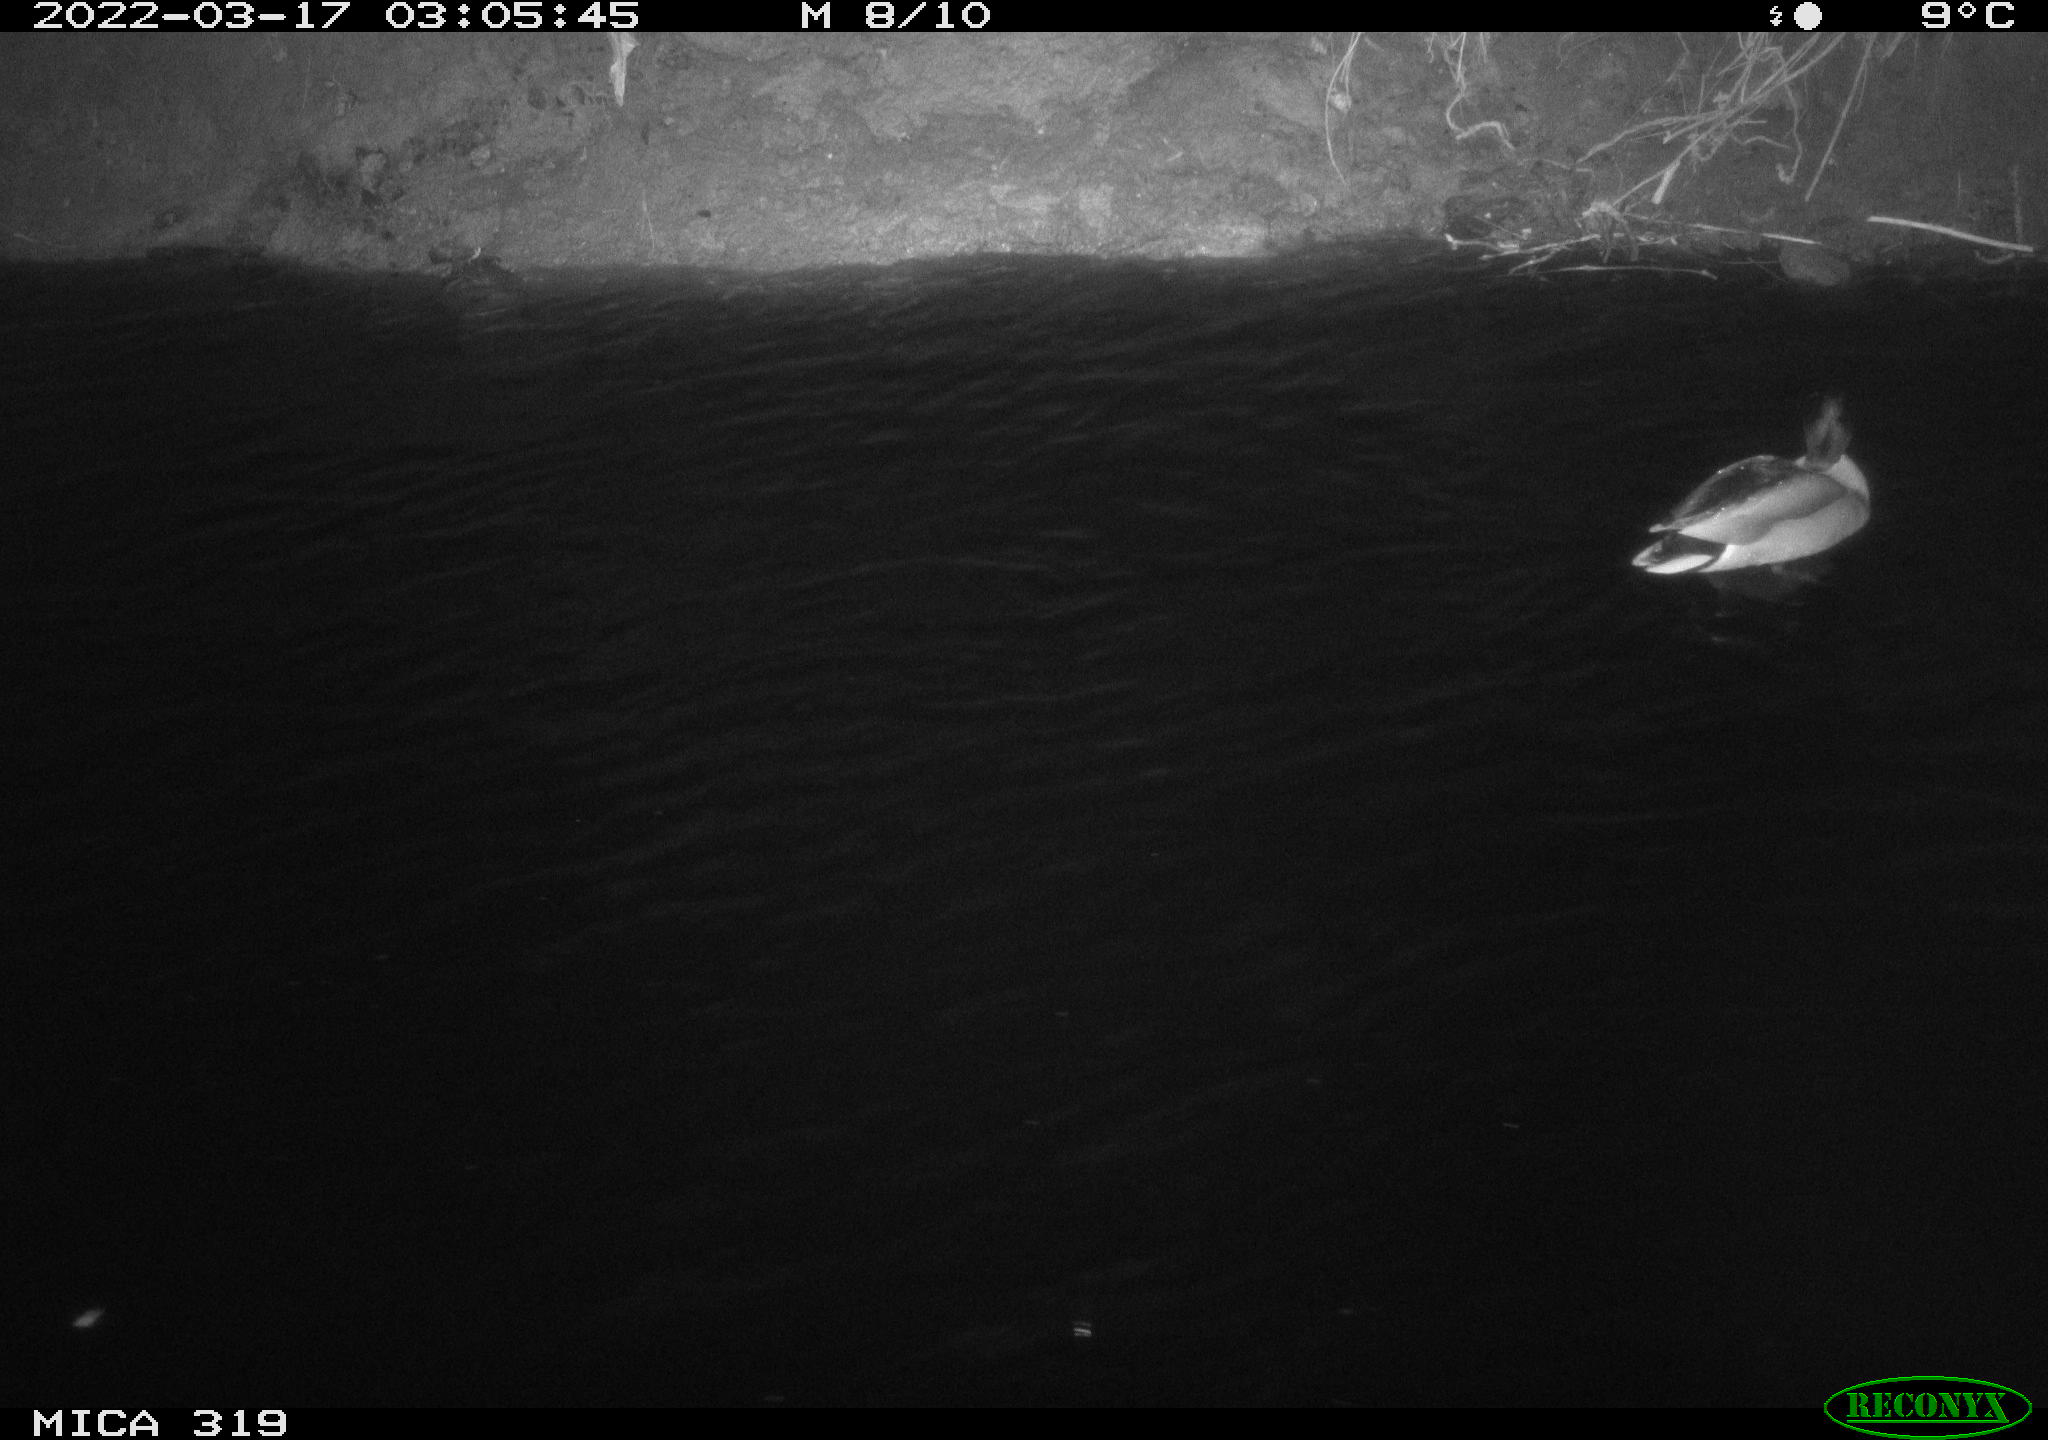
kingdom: Animalia
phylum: Chordata
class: Aves
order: Anseriformes
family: Anatidae
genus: Anas
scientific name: Anas platyrhynchos
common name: Mallard
